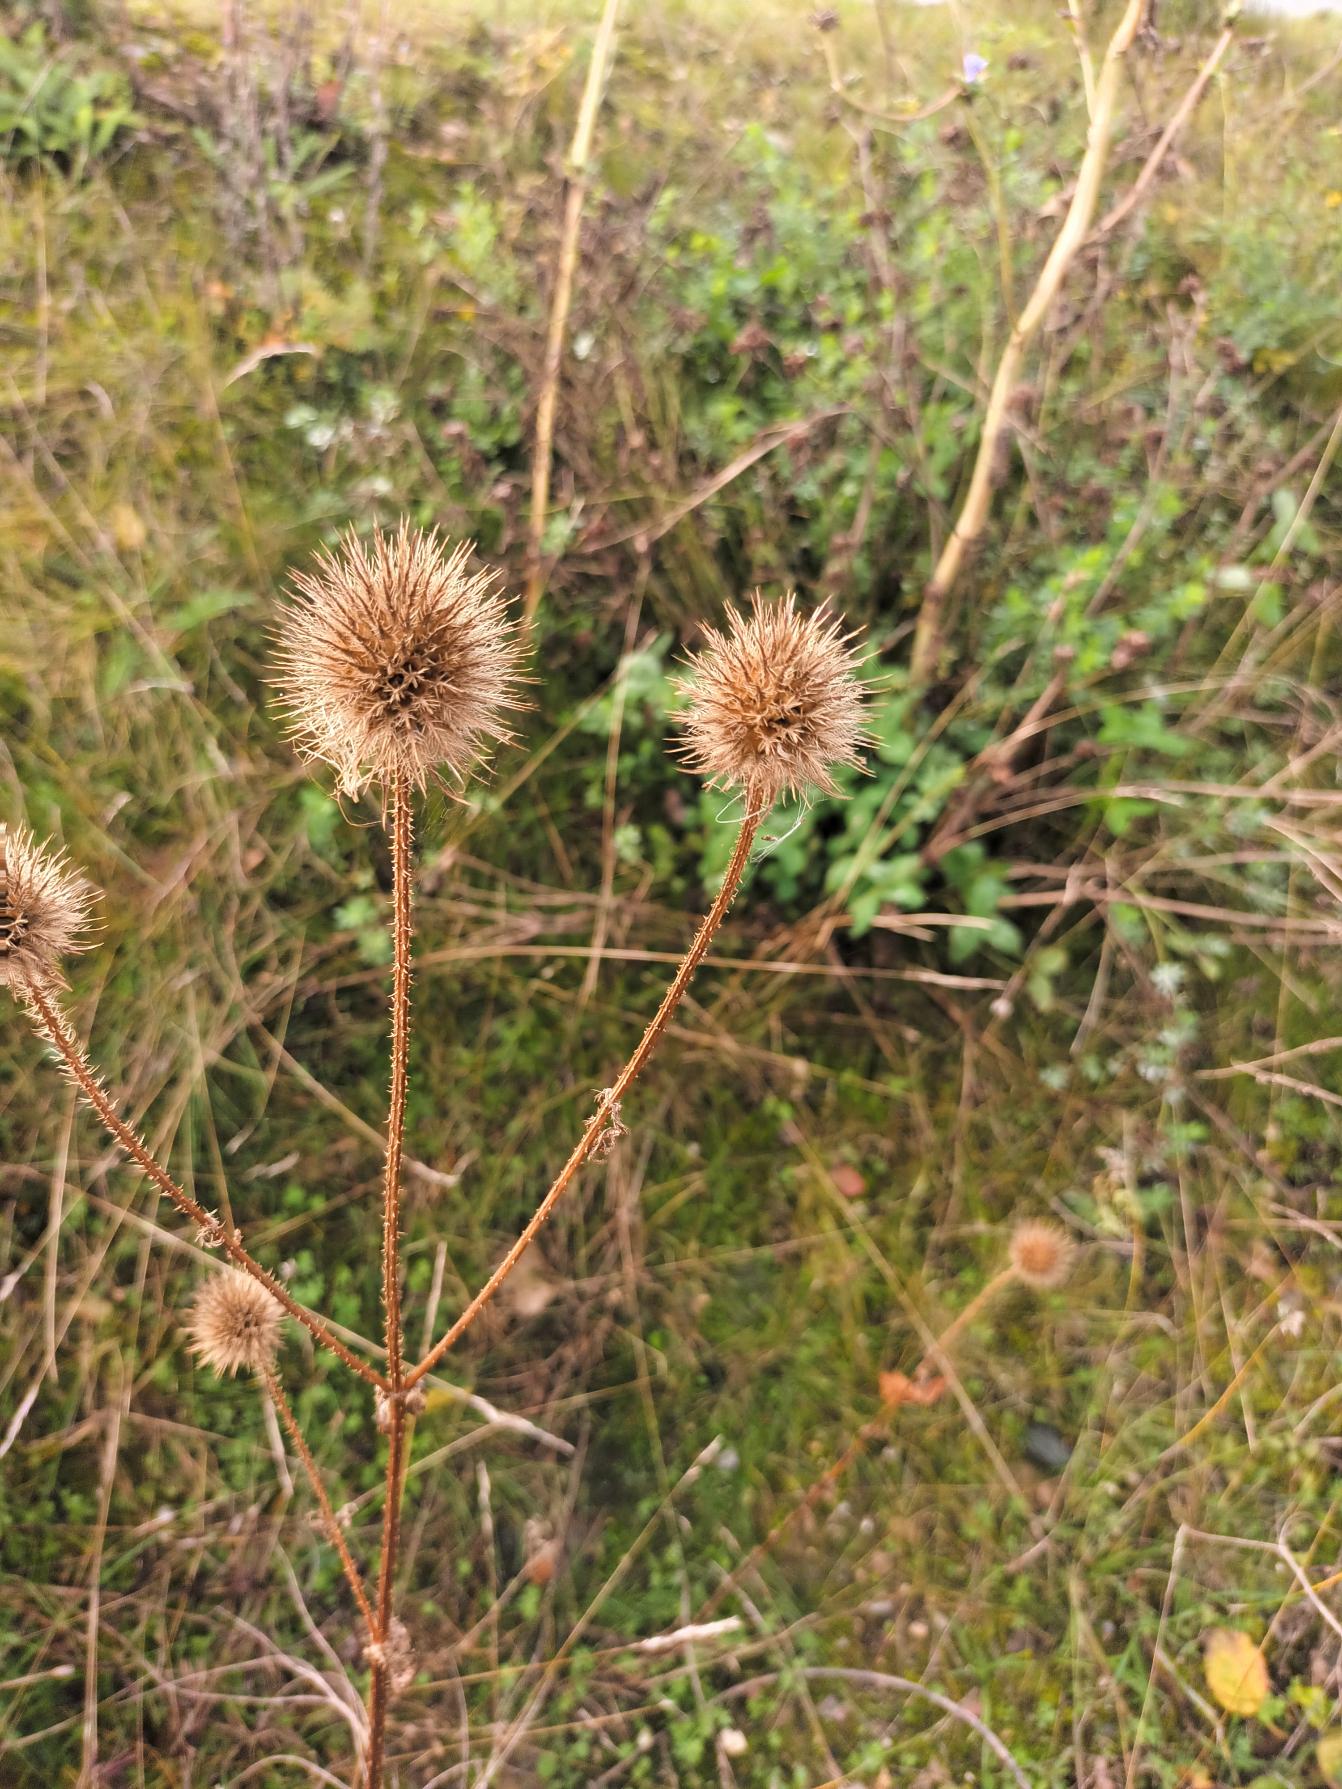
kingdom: Plantae
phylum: Tracheophyta
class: Magnoliopsida
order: Dipsacales
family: Caprifoliaceae
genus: Dipsacus
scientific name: Dipsacus strigosus
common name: Pindsvin-kartebolle
